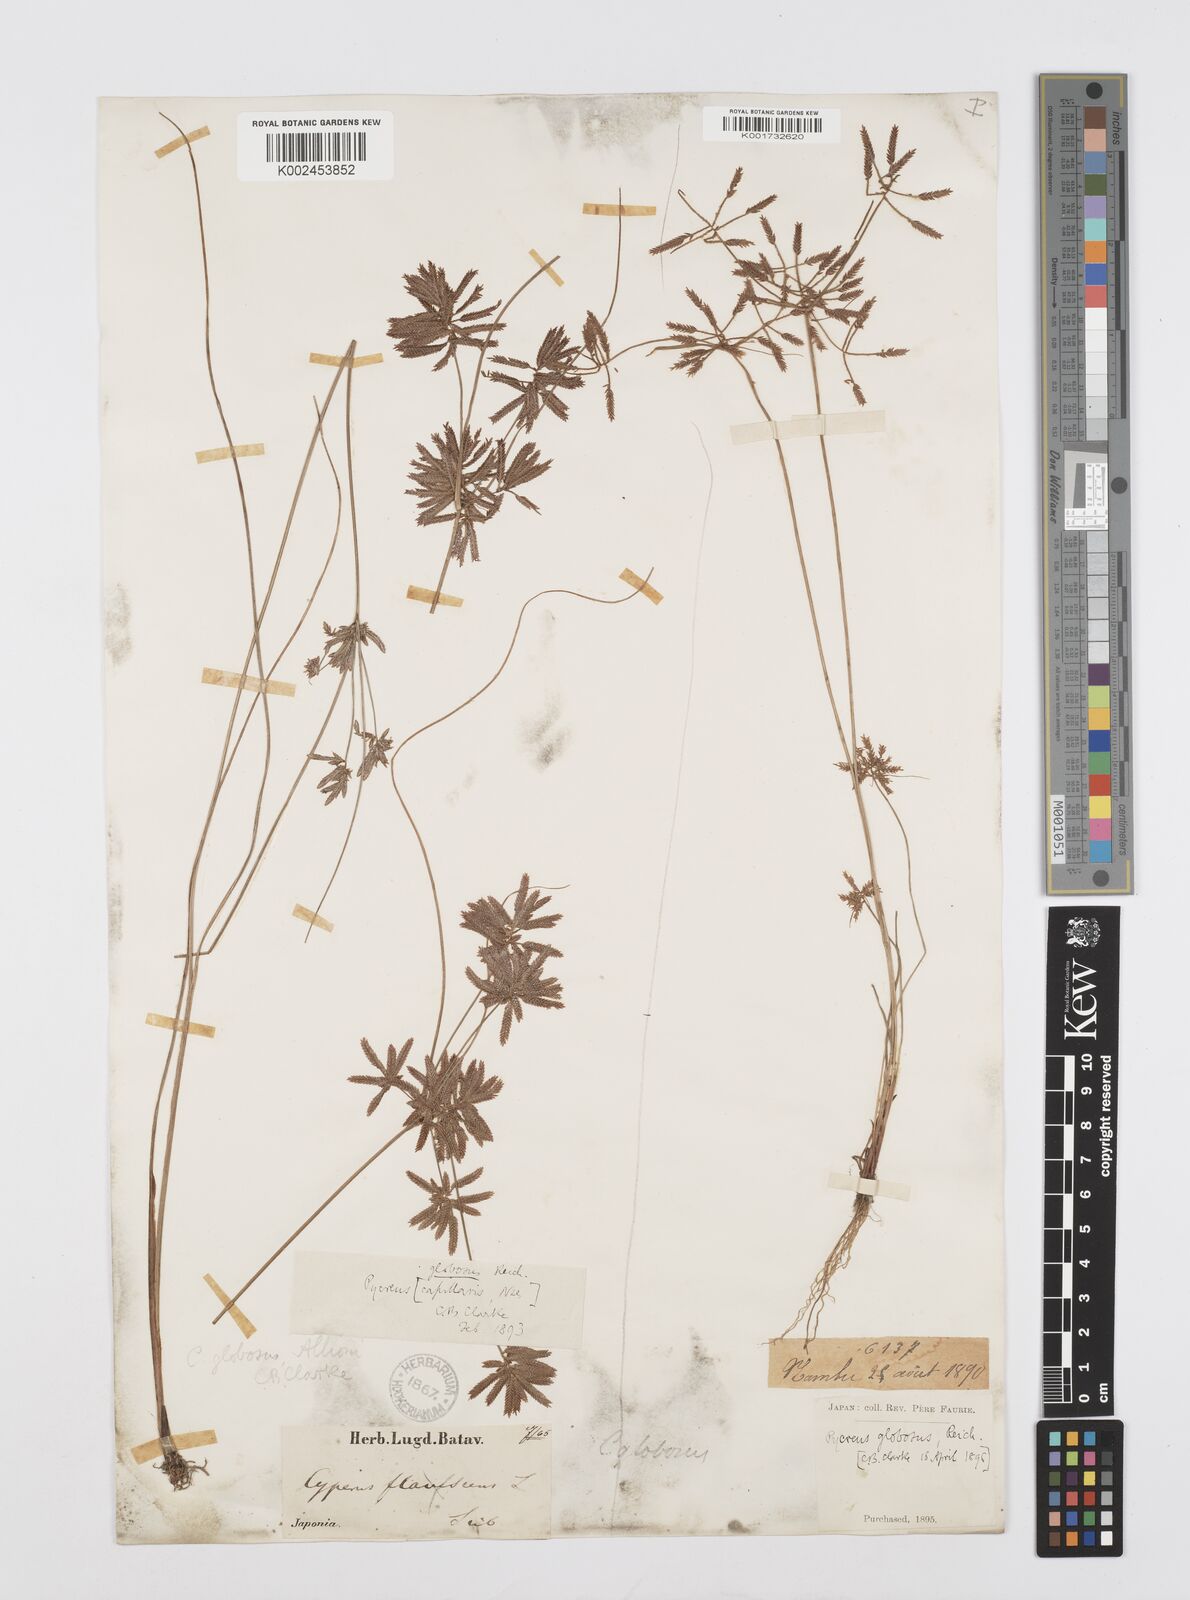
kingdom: Plantae
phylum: Tracheophyta
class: Liliopsida
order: Poales
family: Cyperaceae
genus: Cyperus
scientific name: Cyperus flavidus
